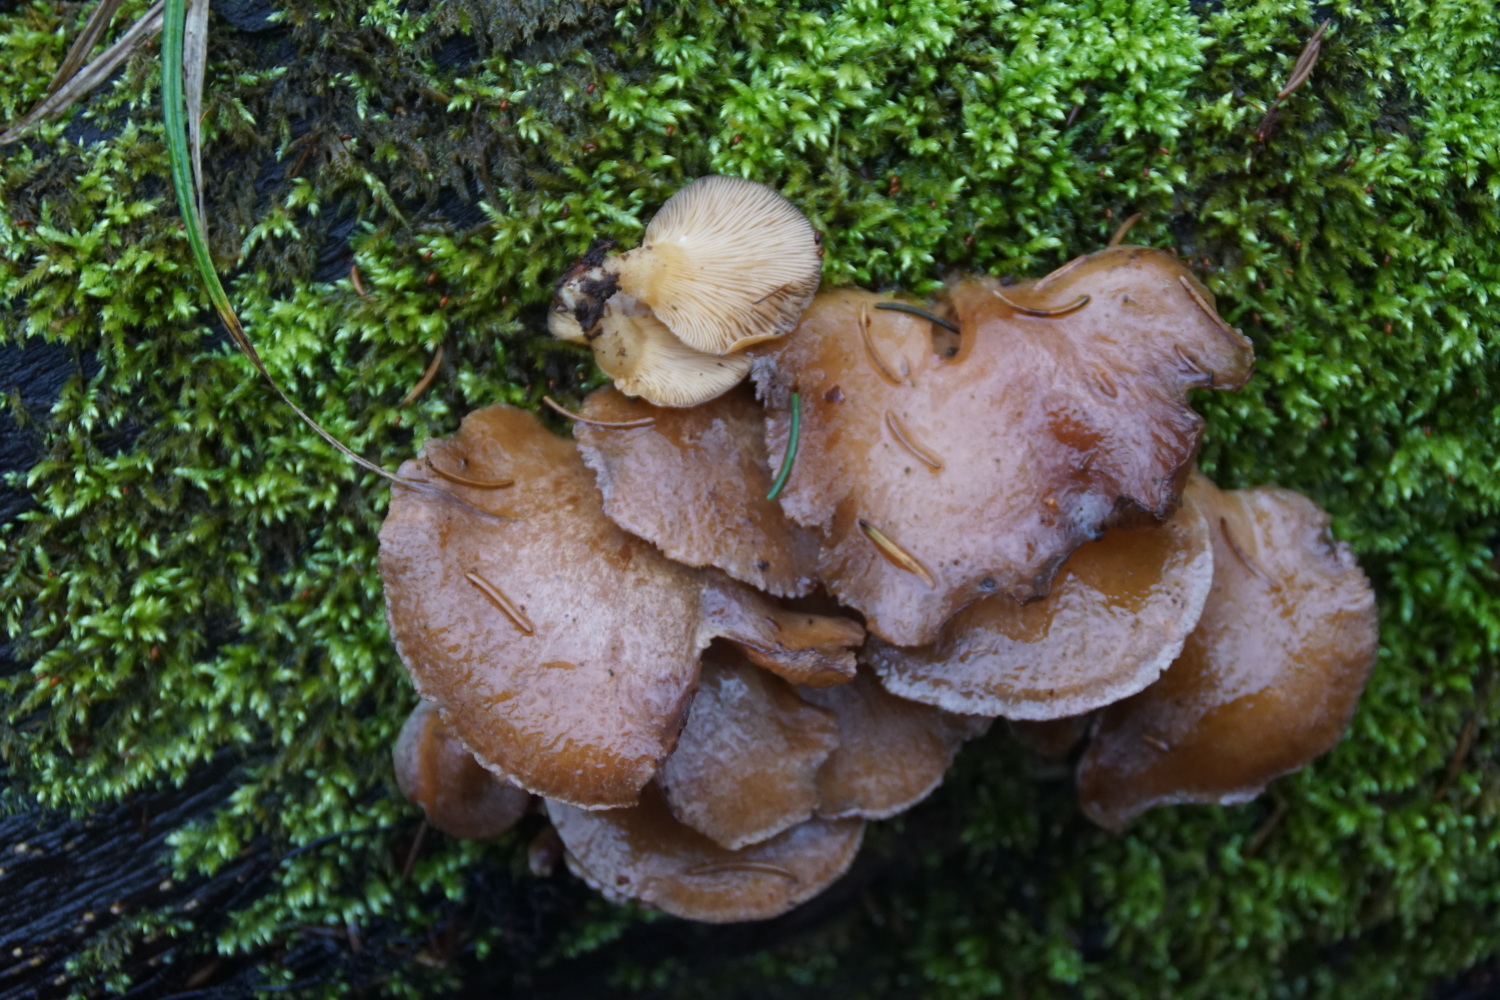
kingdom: Fungi
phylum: Basidiomycota
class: Agaricomycetes
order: Agaricales
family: Sarcomyxaceae
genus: Sarcomyxa
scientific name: Sarcomyxa serotina
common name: gummihat
